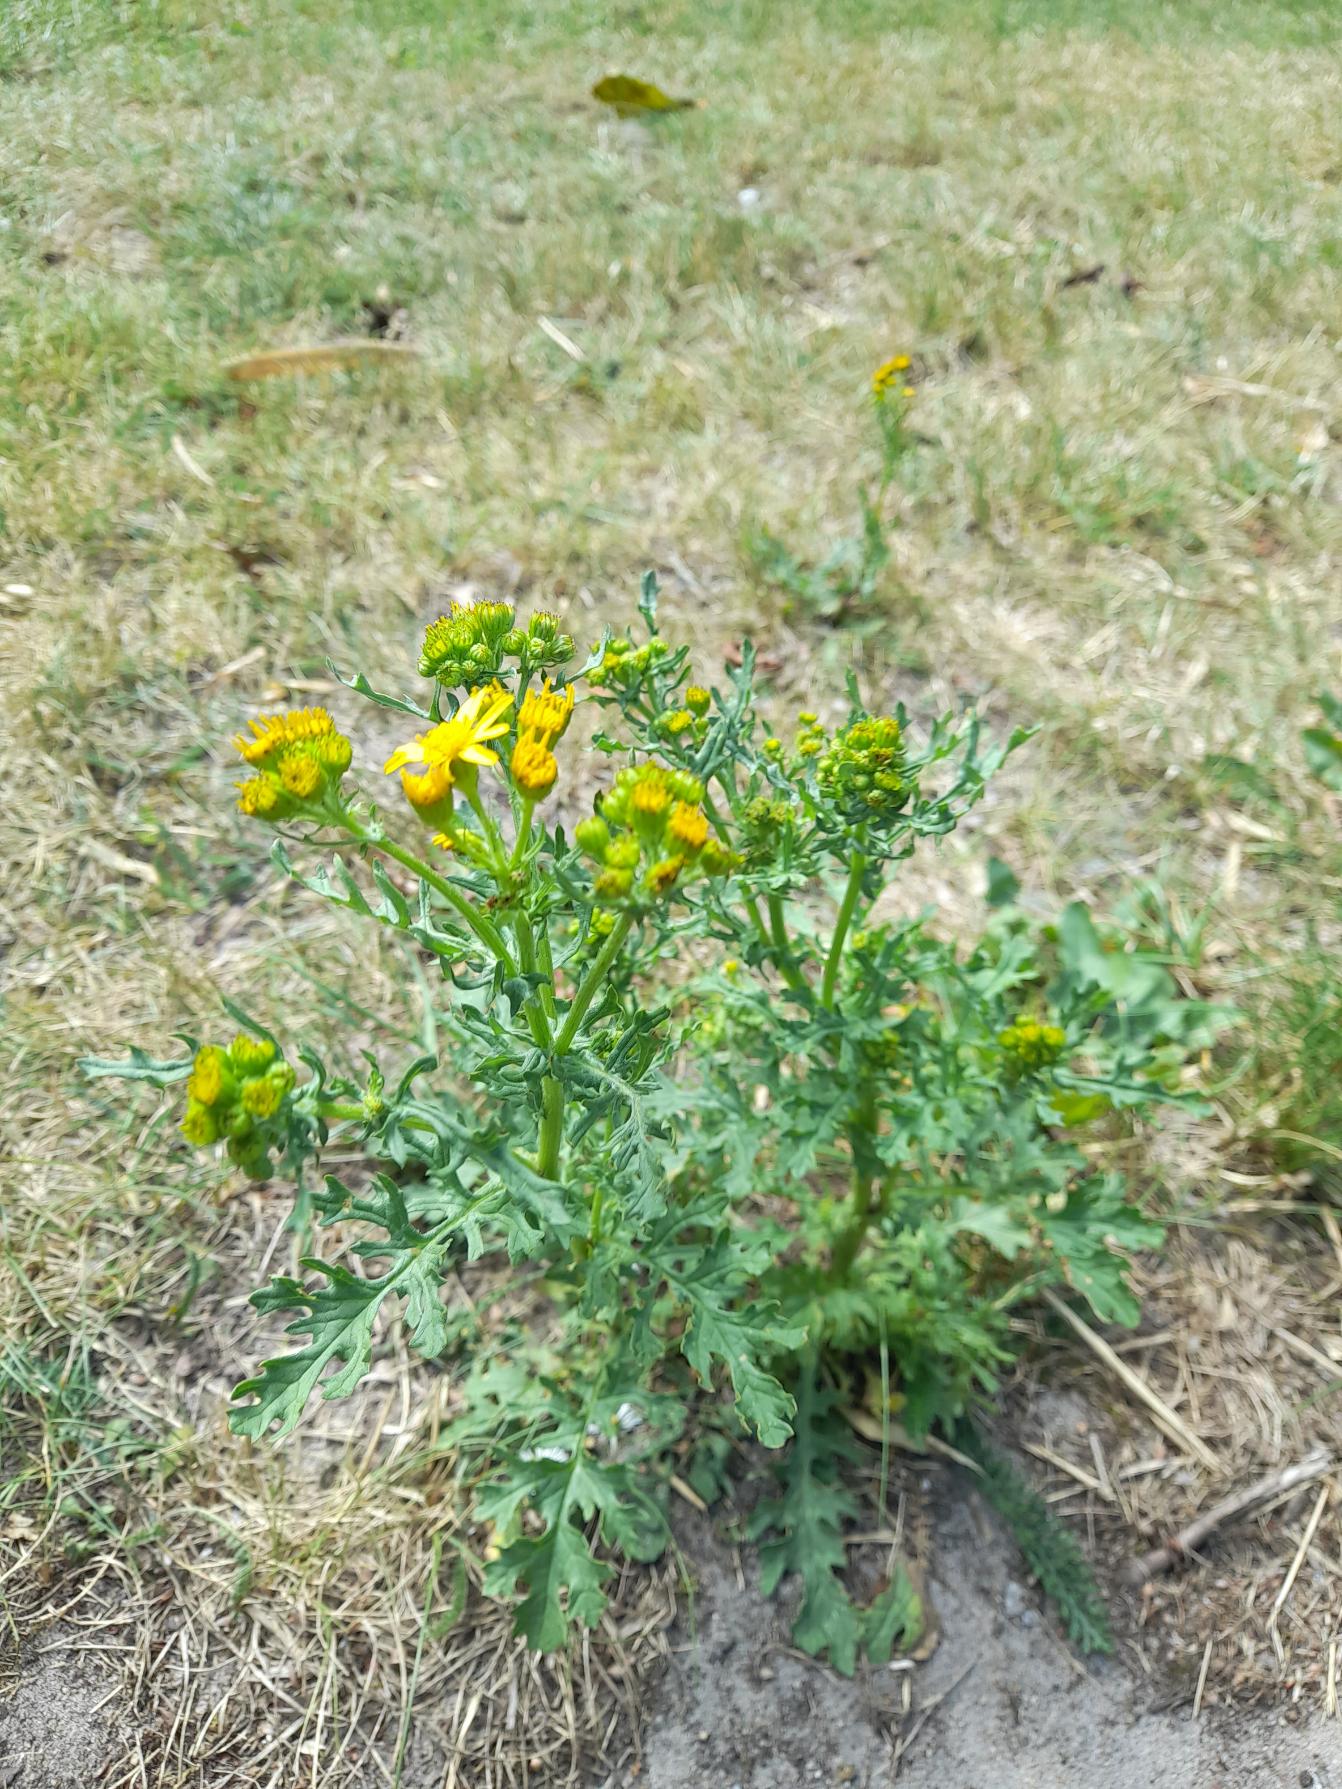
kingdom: Plantae
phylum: Tracheophyta
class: Magnoliopsida
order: Asterales
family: Asteraceae
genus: Jacobaea
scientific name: Jacobaea vulgaris
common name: Eng-brandbæger
